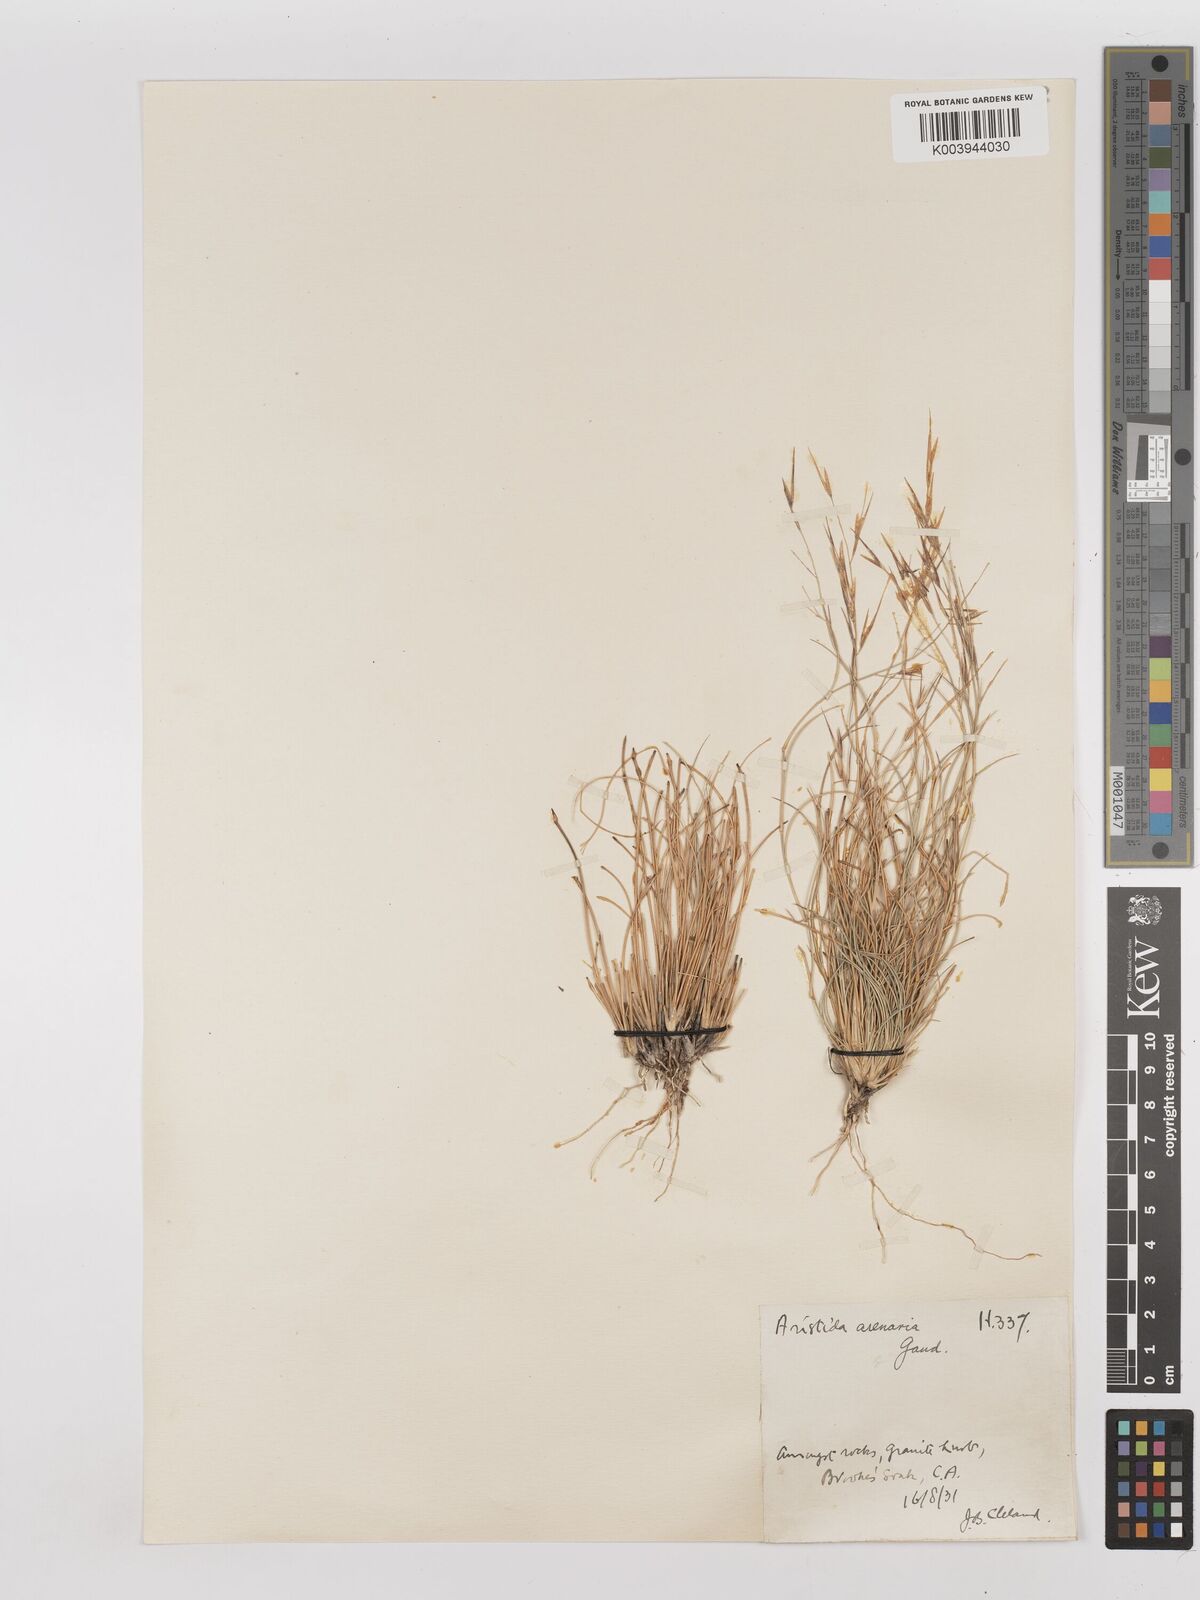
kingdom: Plantae
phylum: Tracheophyta
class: Liliopsida
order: Poales
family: Poaceae
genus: Aristida
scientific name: Aristida contorta
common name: Bunch kerosene grass
